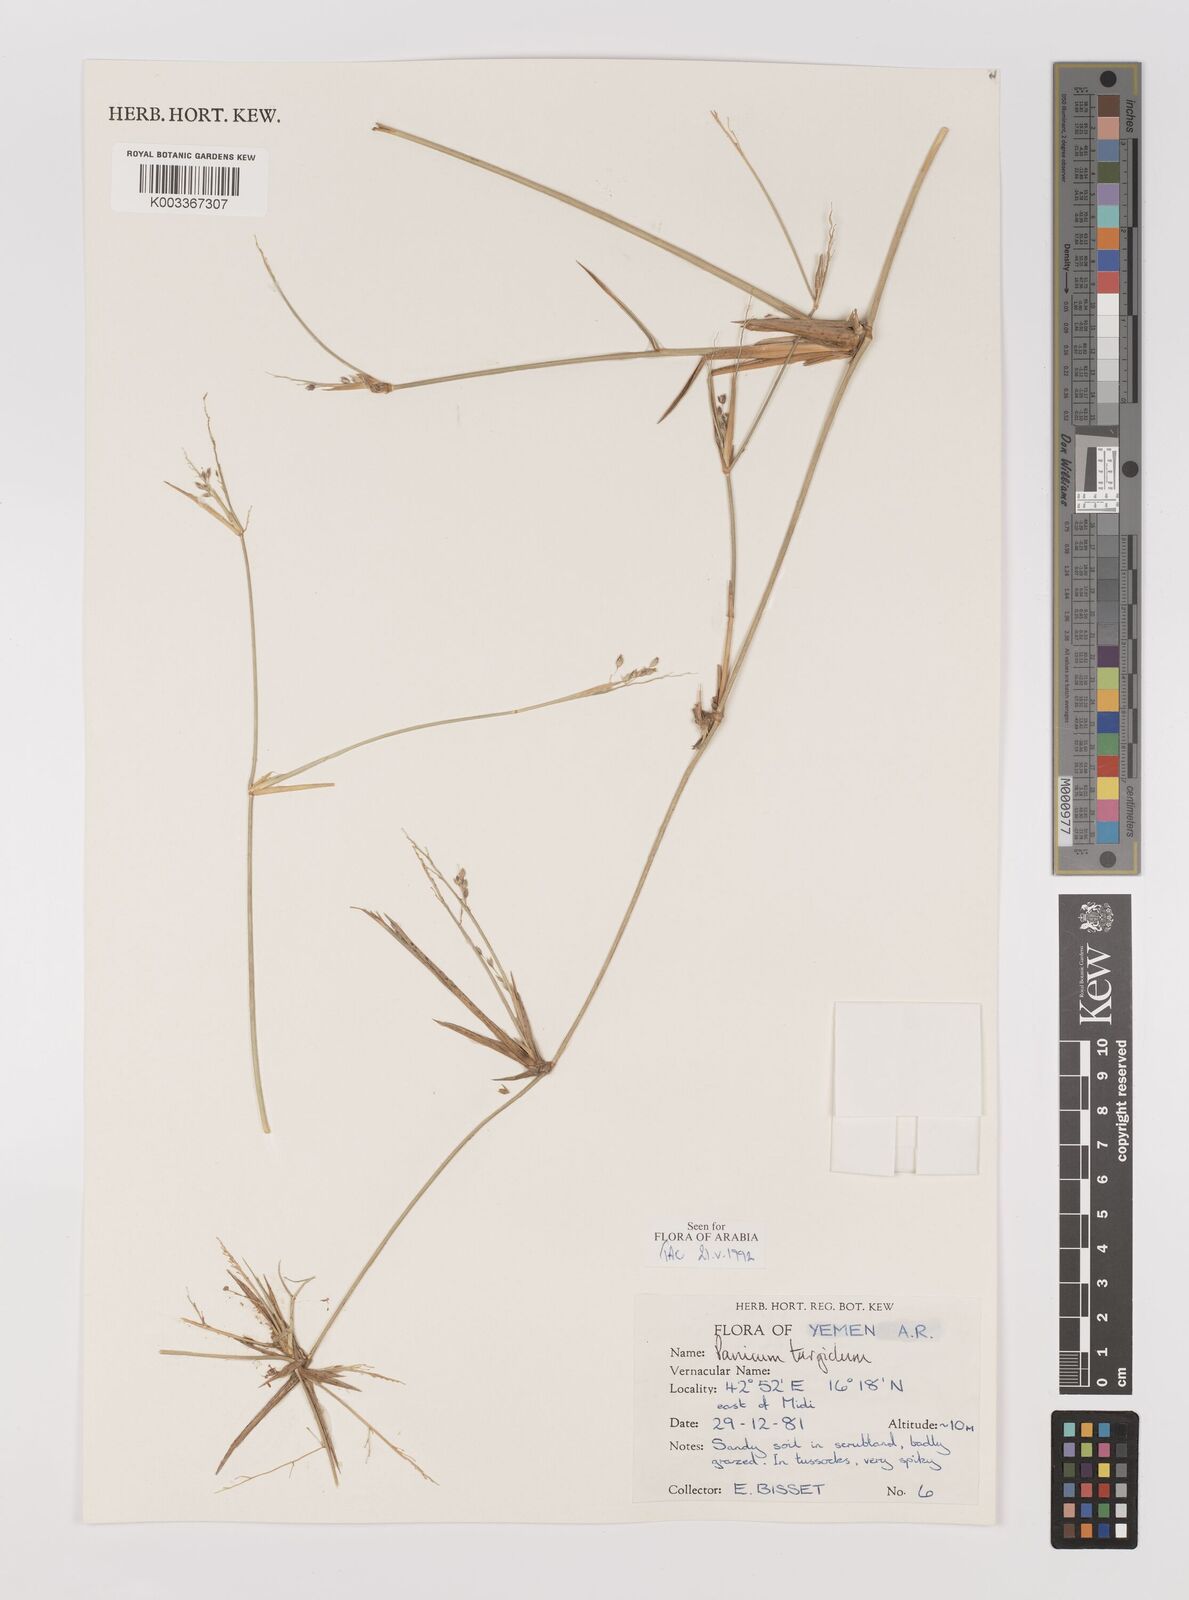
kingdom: Plantae
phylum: Tracheophyta
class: Liliopsida
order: Poales
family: Poaceae
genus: Panicum
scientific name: Panicum turgidum
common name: Desert grass
